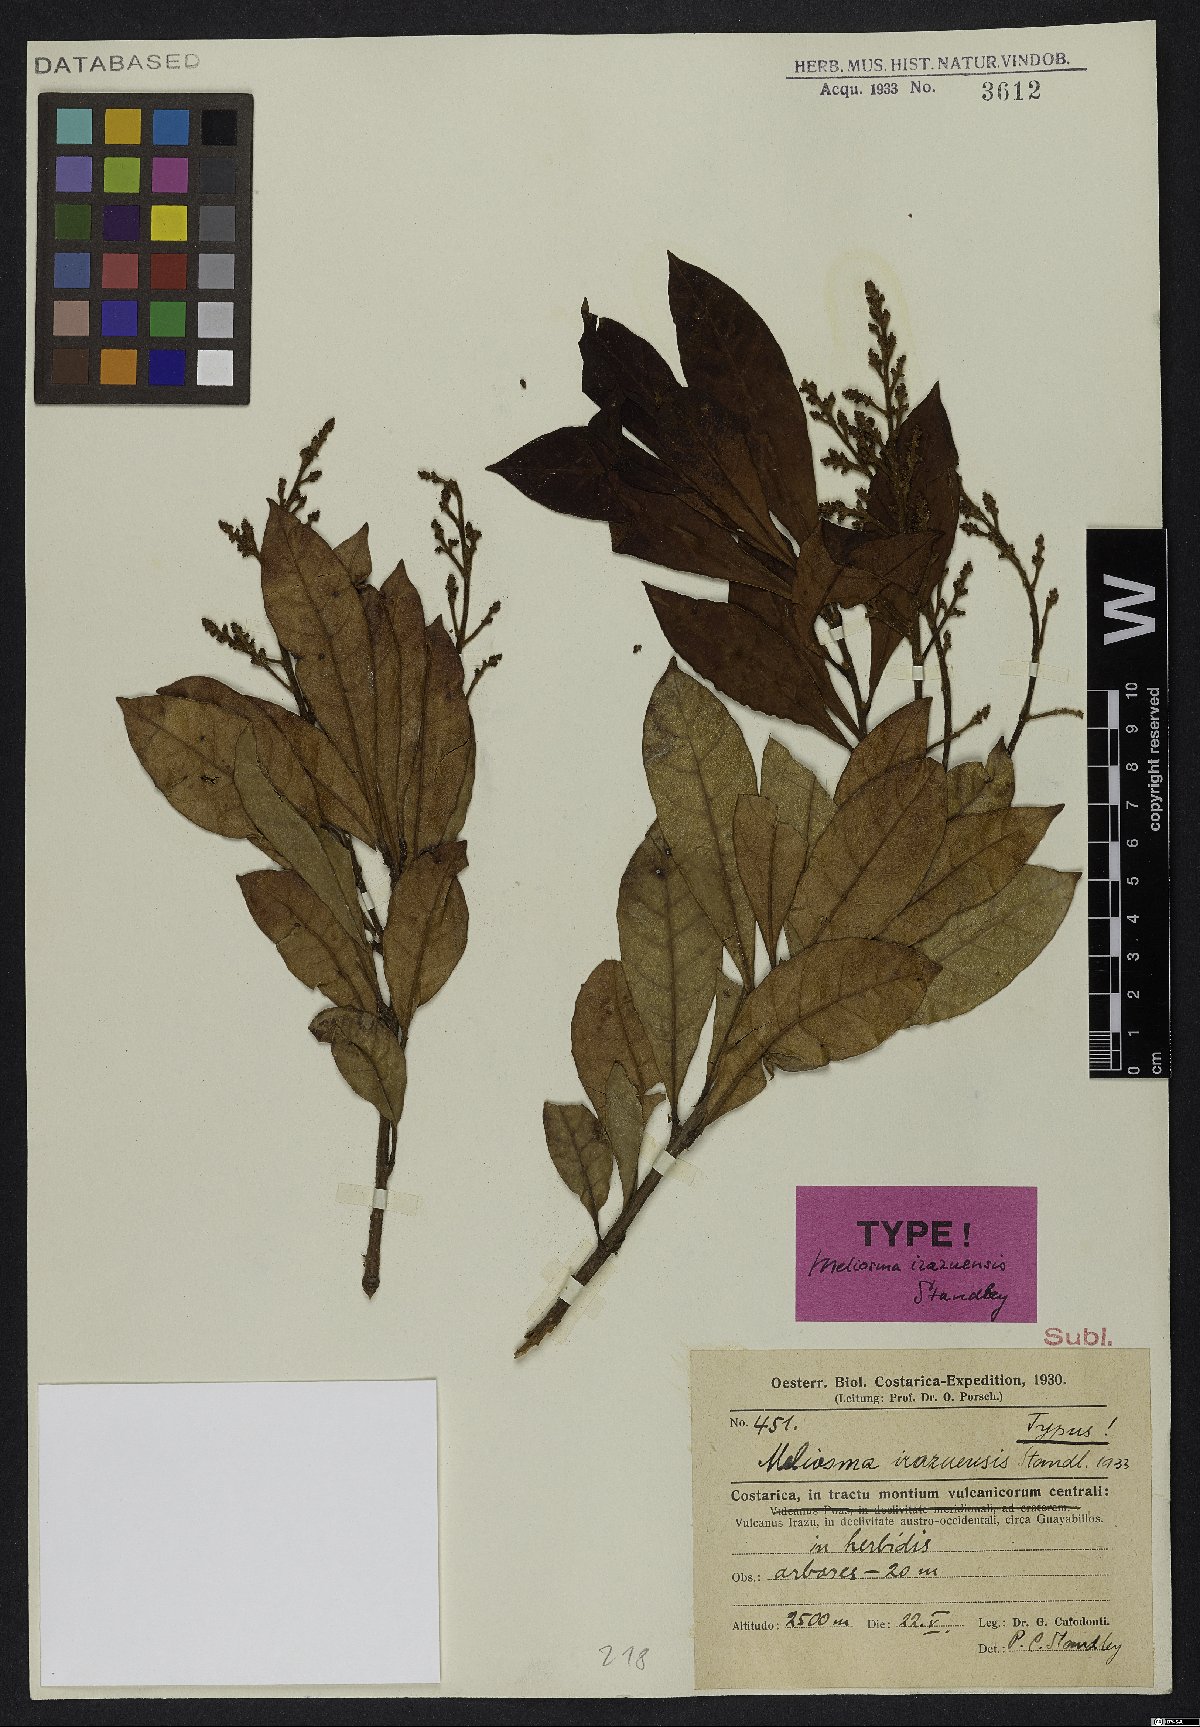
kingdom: Plantae
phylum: Tracheophyta
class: Magnoliopsida
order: Proteales
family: Sabiaceae
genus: Meliosma
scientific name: Meliosma irazuensis
